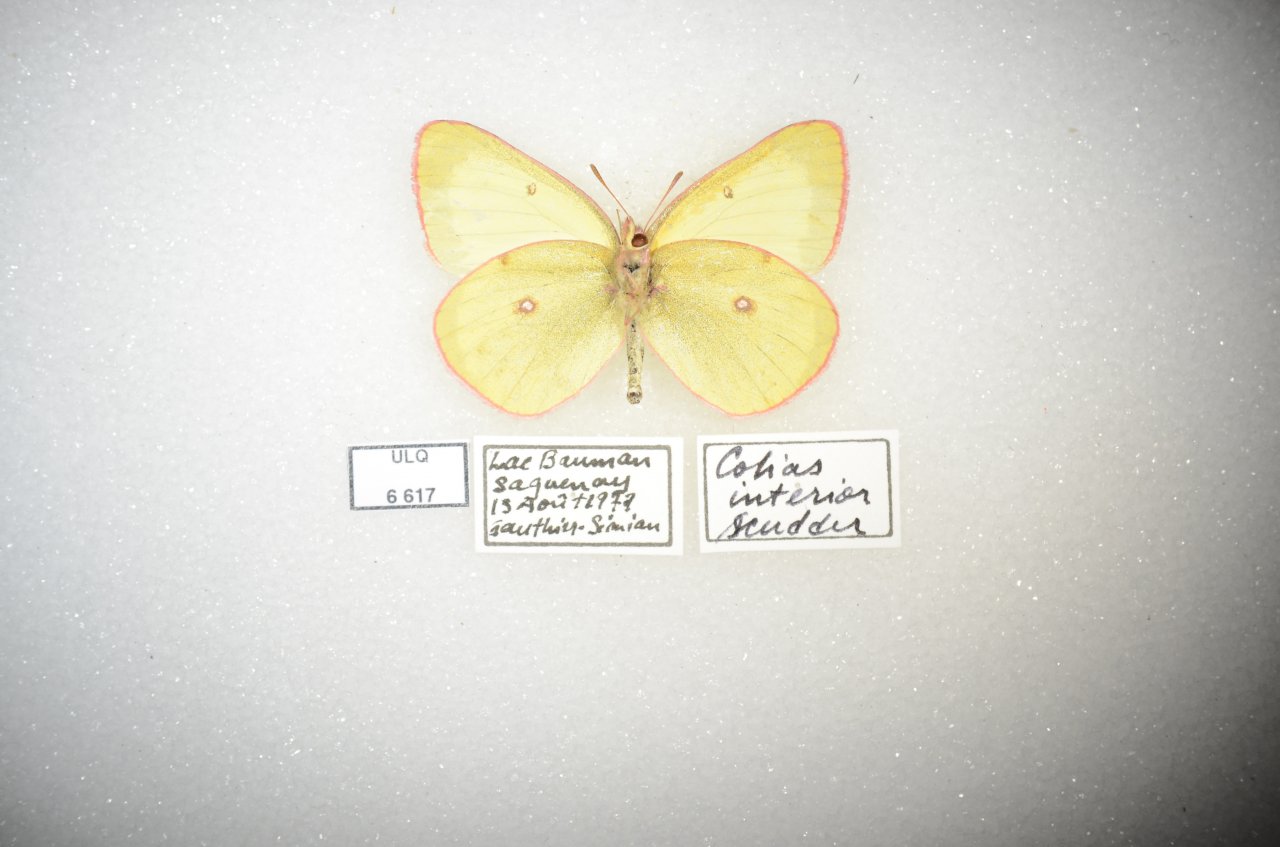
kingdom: Animalia
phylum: Arthropoda
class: Insecta
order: Lepidoptera
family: Pieridae
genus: Colias
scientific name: Colias interior
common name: Pink-edged Sulphur
